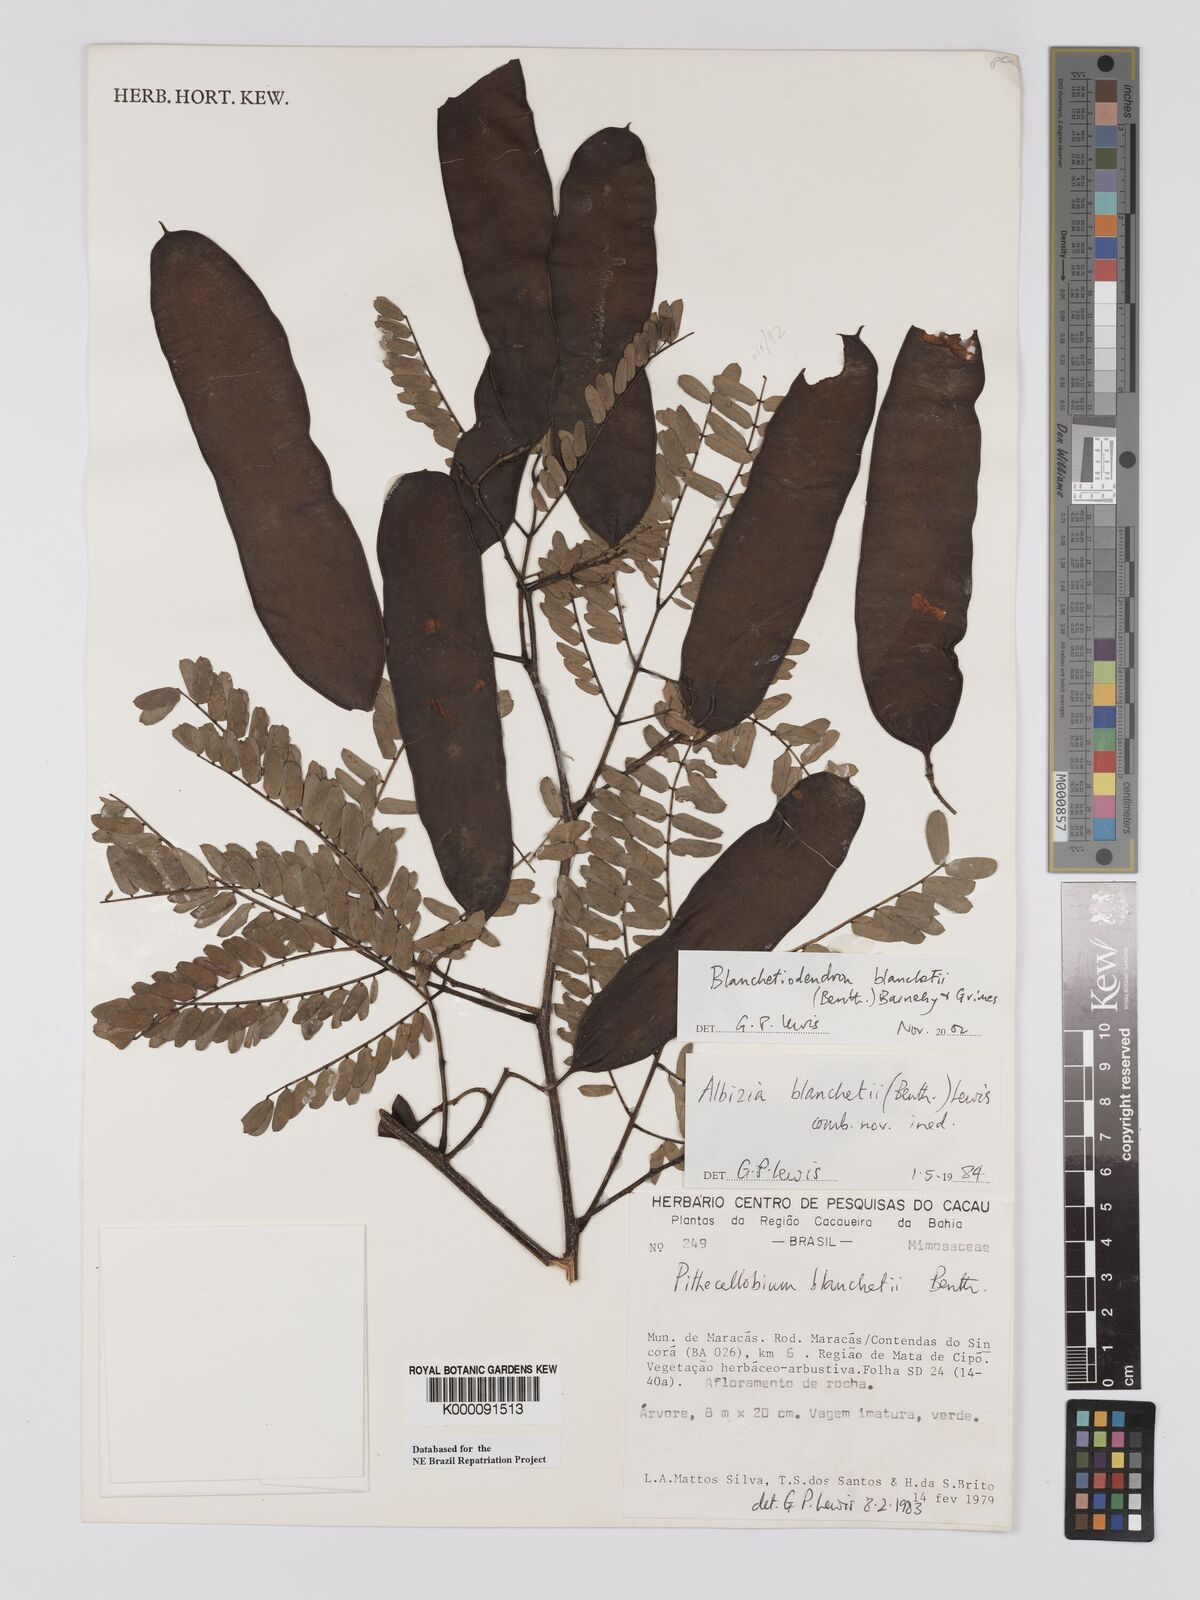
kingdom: Plantae
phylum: Tracheophyta
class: Magnoliopsida
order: Fabales
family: Fabaceae
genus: Blanchetiodendron
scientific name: Blanchetiodendron blanchetii
